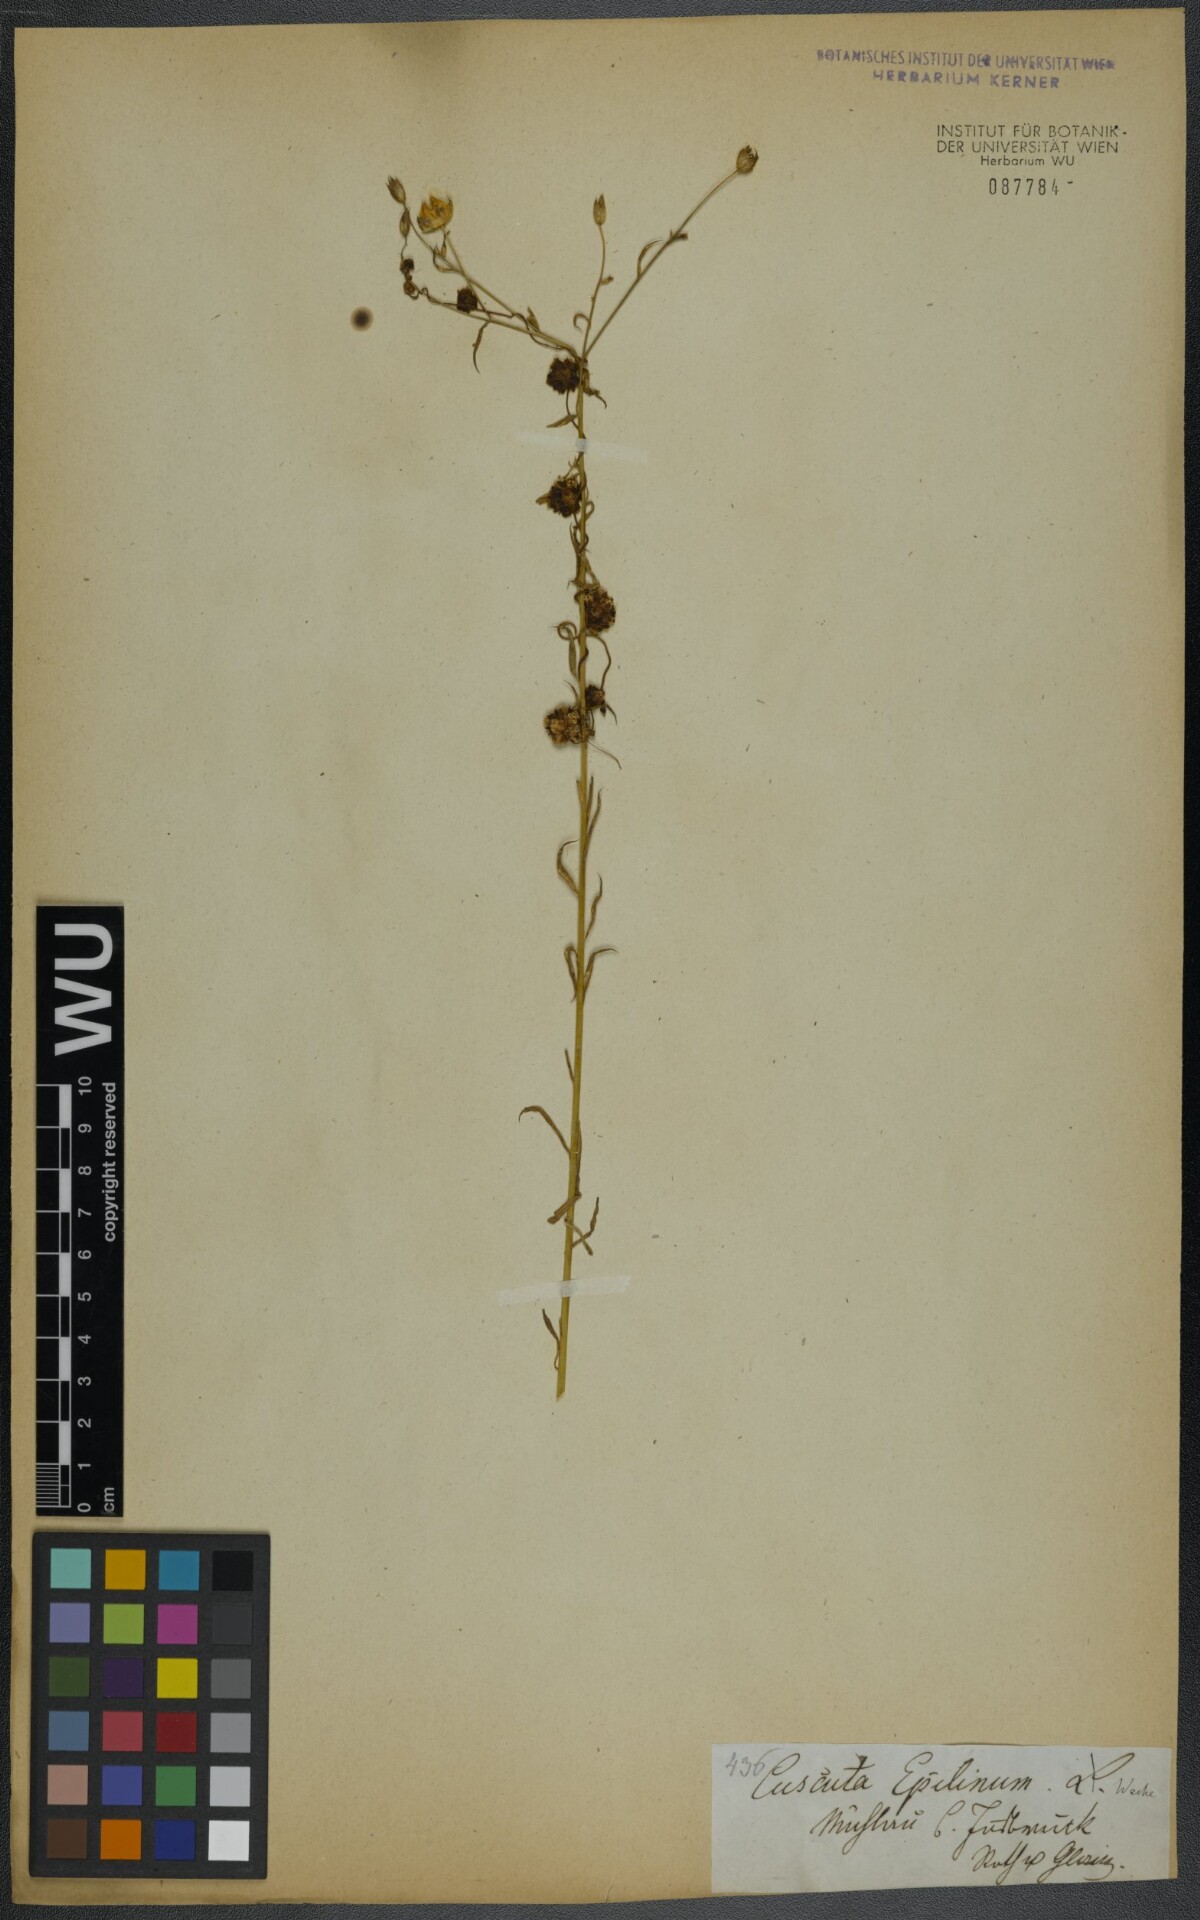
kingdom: Plantae
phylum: Tracheophyta
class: Magnoliopsida
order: Solanales
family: Convolvulaceae
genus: Cuscuta
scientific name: Cuscuta epilinum
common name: Flax dodder
